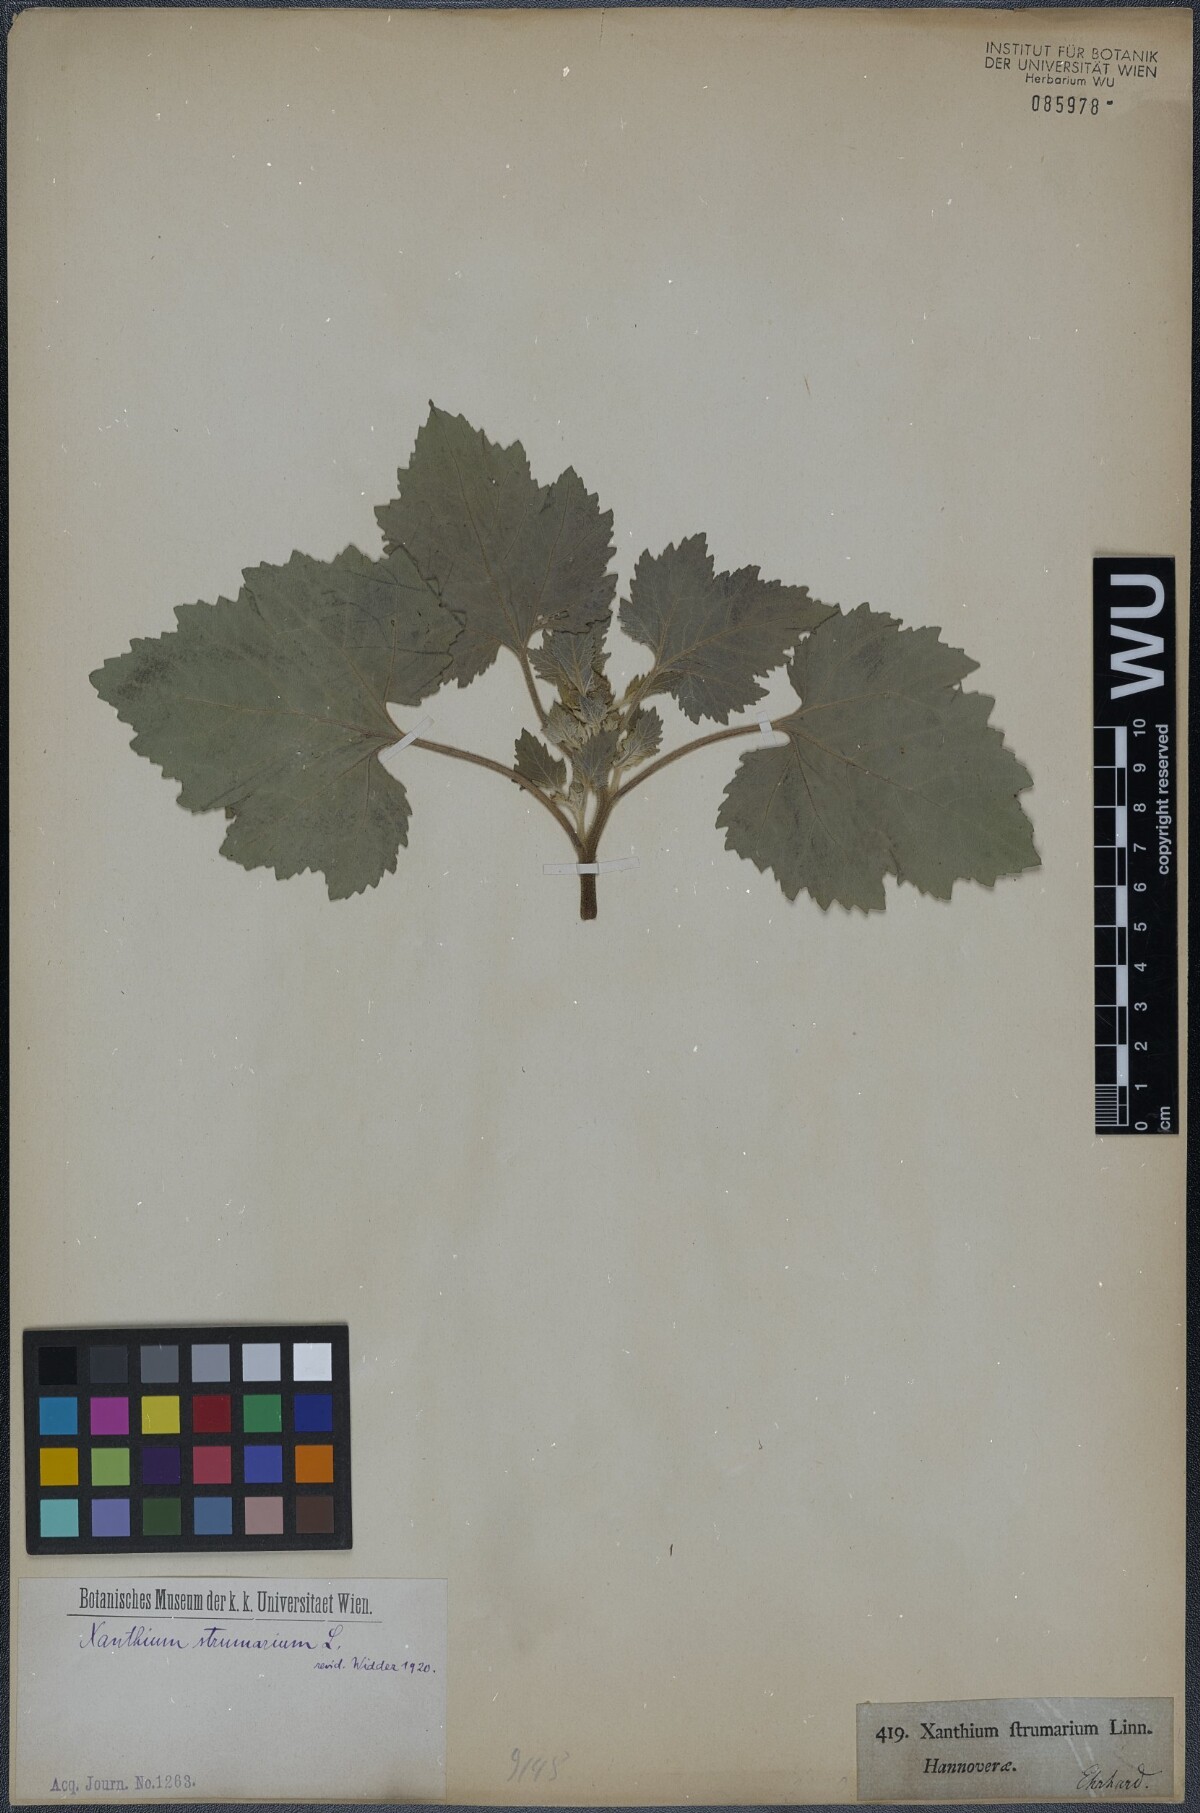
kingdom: Plantae
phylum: Tracheophyta
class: Magnoliopsida
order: Asterales
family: Asteraceae
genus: Xanthium
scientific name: Xanthium strumarium
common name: Rough cocklebur
